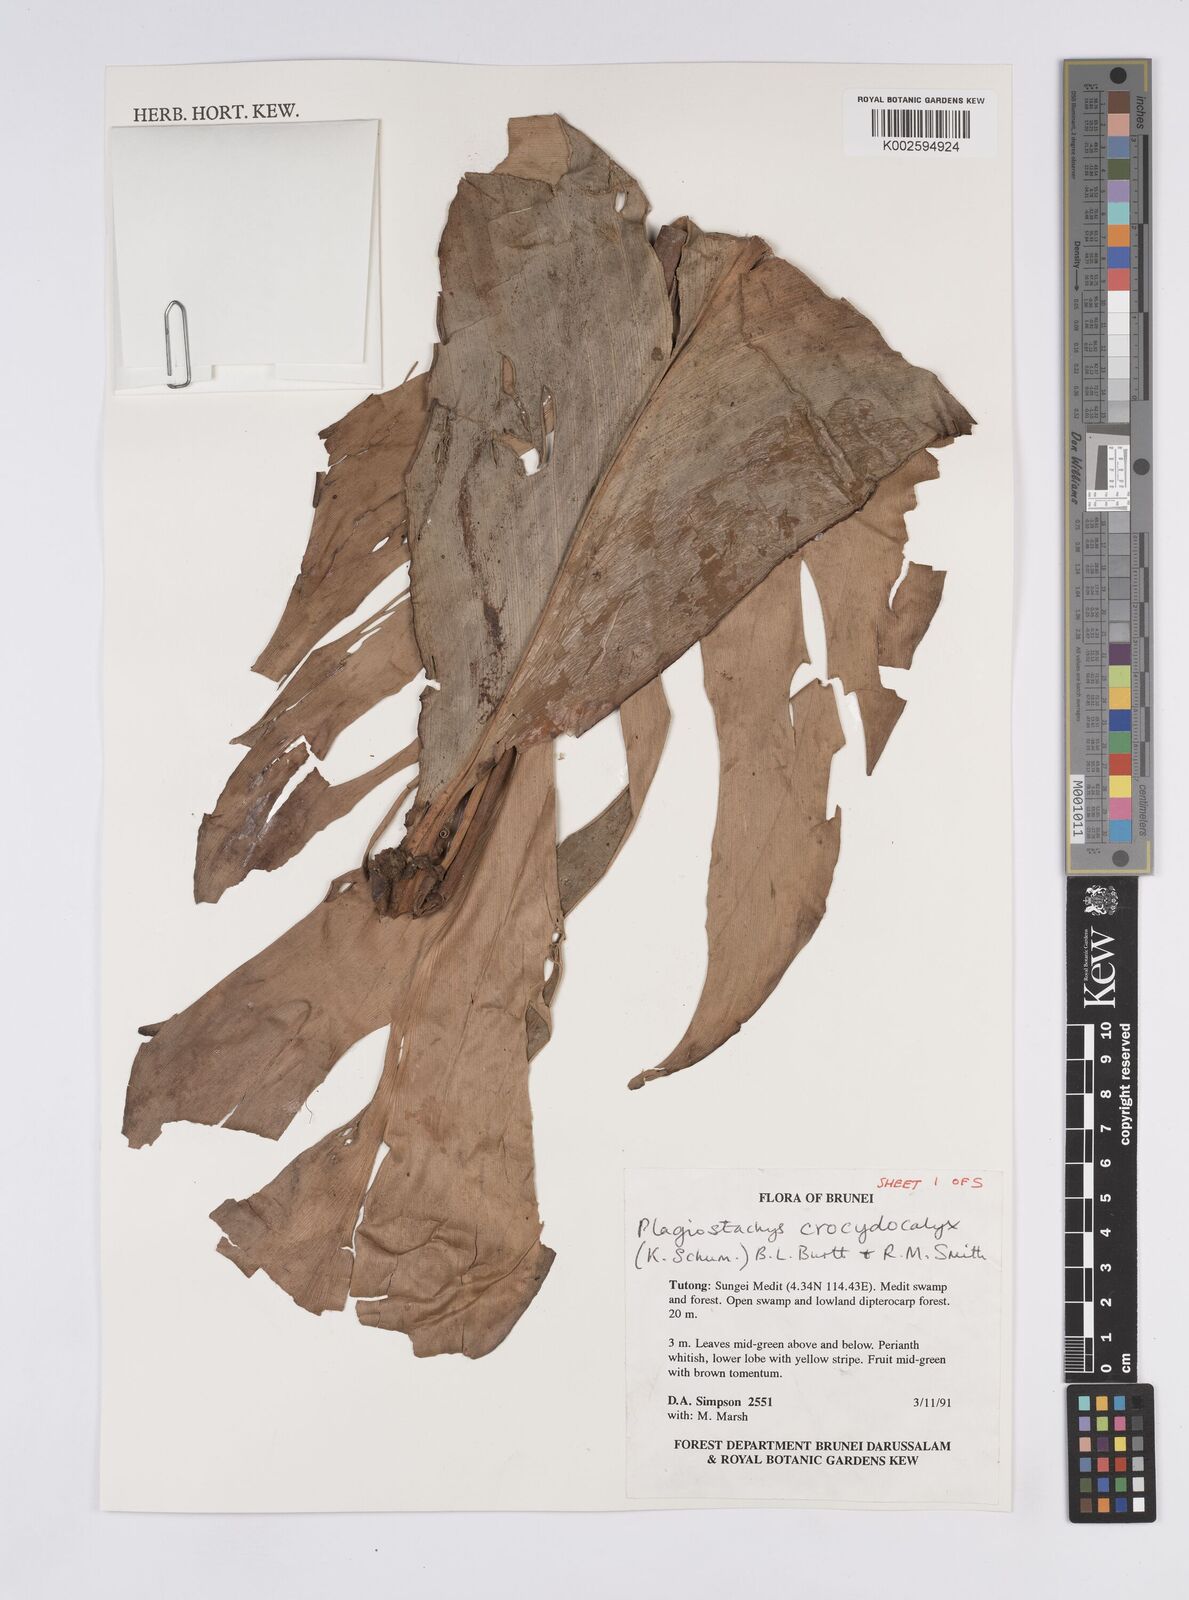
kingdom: Plantae
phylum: Tracheophyta
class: Liliopsida
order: Zingiberales
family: Zingiberaceae
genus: Plagiostachys
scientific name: Plagiostachys crocydocalyx
